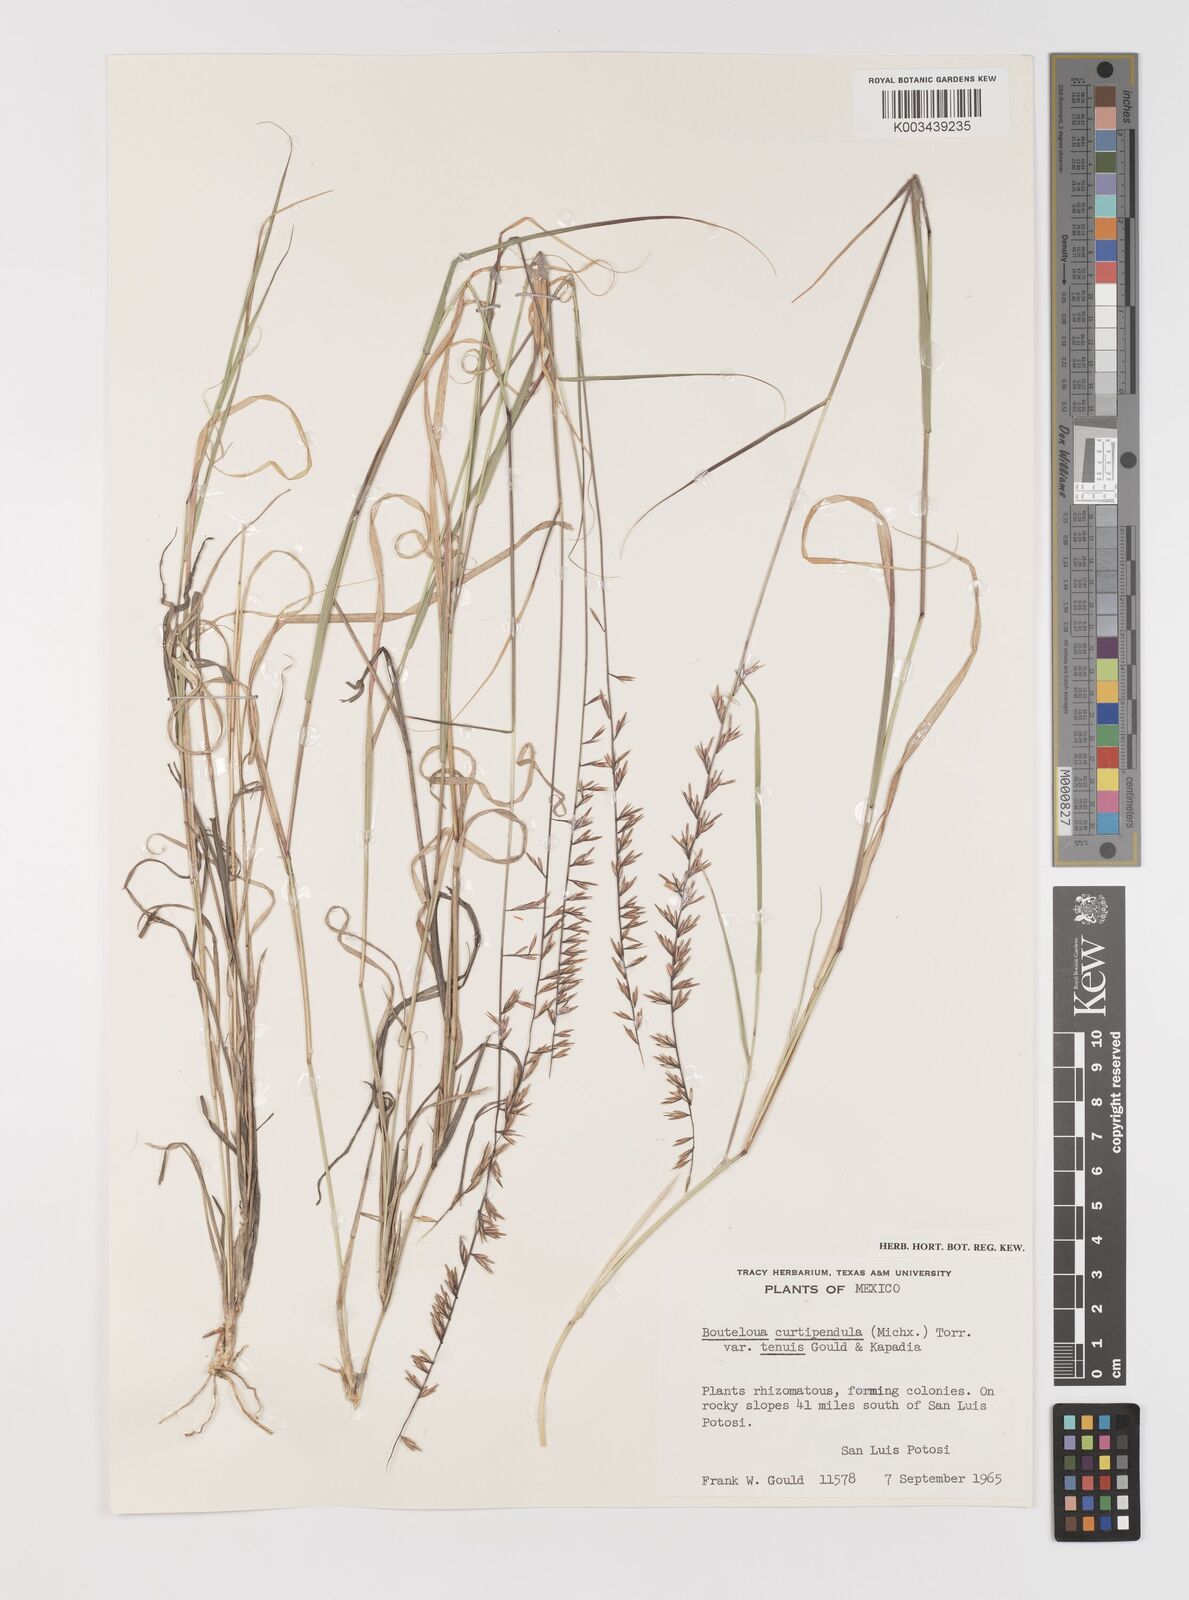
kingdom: Plantae
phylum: Tracheophyta
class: Liliopsida
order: Poales
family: Poaceae
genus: Bouteloua
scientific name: Bouteloua curtipendula
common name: Side-oats grama
